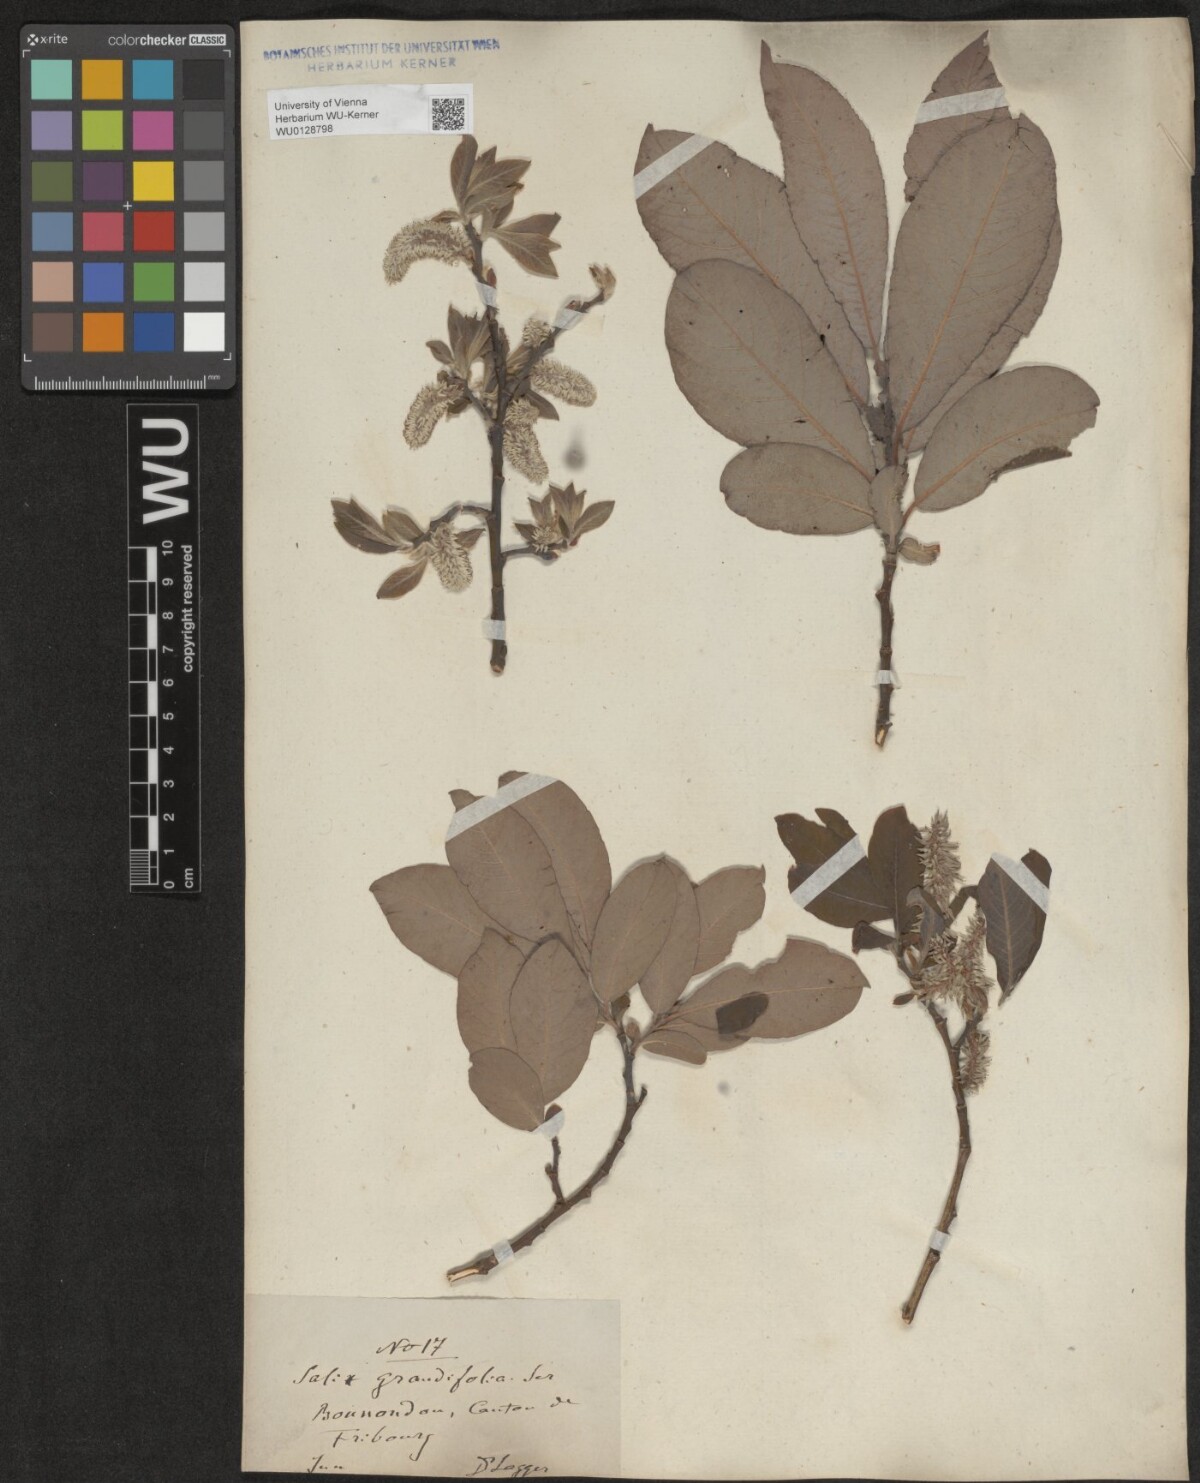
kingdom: Plantae
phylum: Tracheophyta
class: Magnoliopsida
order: Malpighiales
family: Salicaceae
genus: Salix
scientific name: Salix appendiculata
